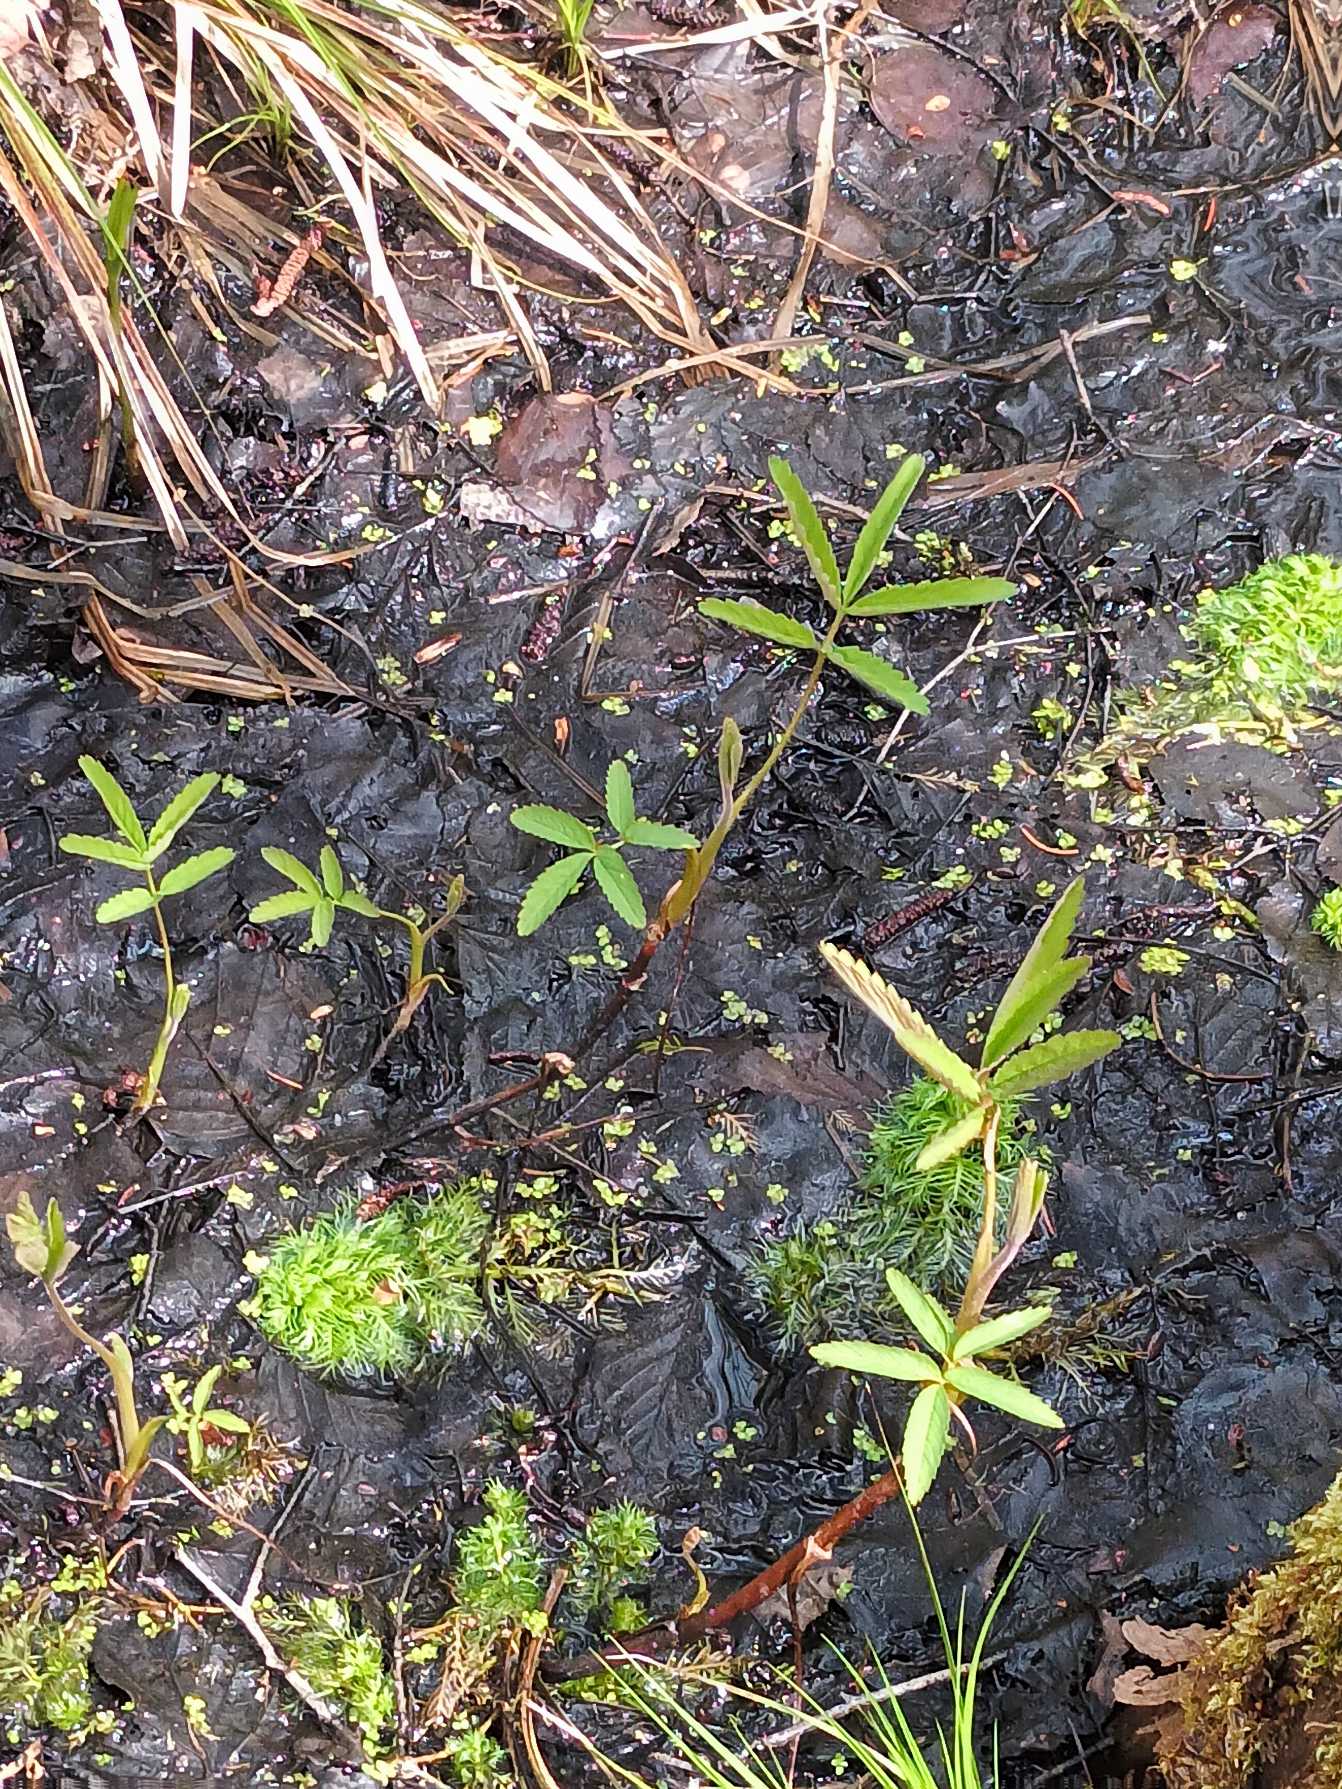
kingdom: Plantae
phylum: Tracheophyta
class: Magnoliopsida
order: Rosales
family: Rosaceae
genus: Comarum
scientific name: Comarum palustre
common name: Kragefod
